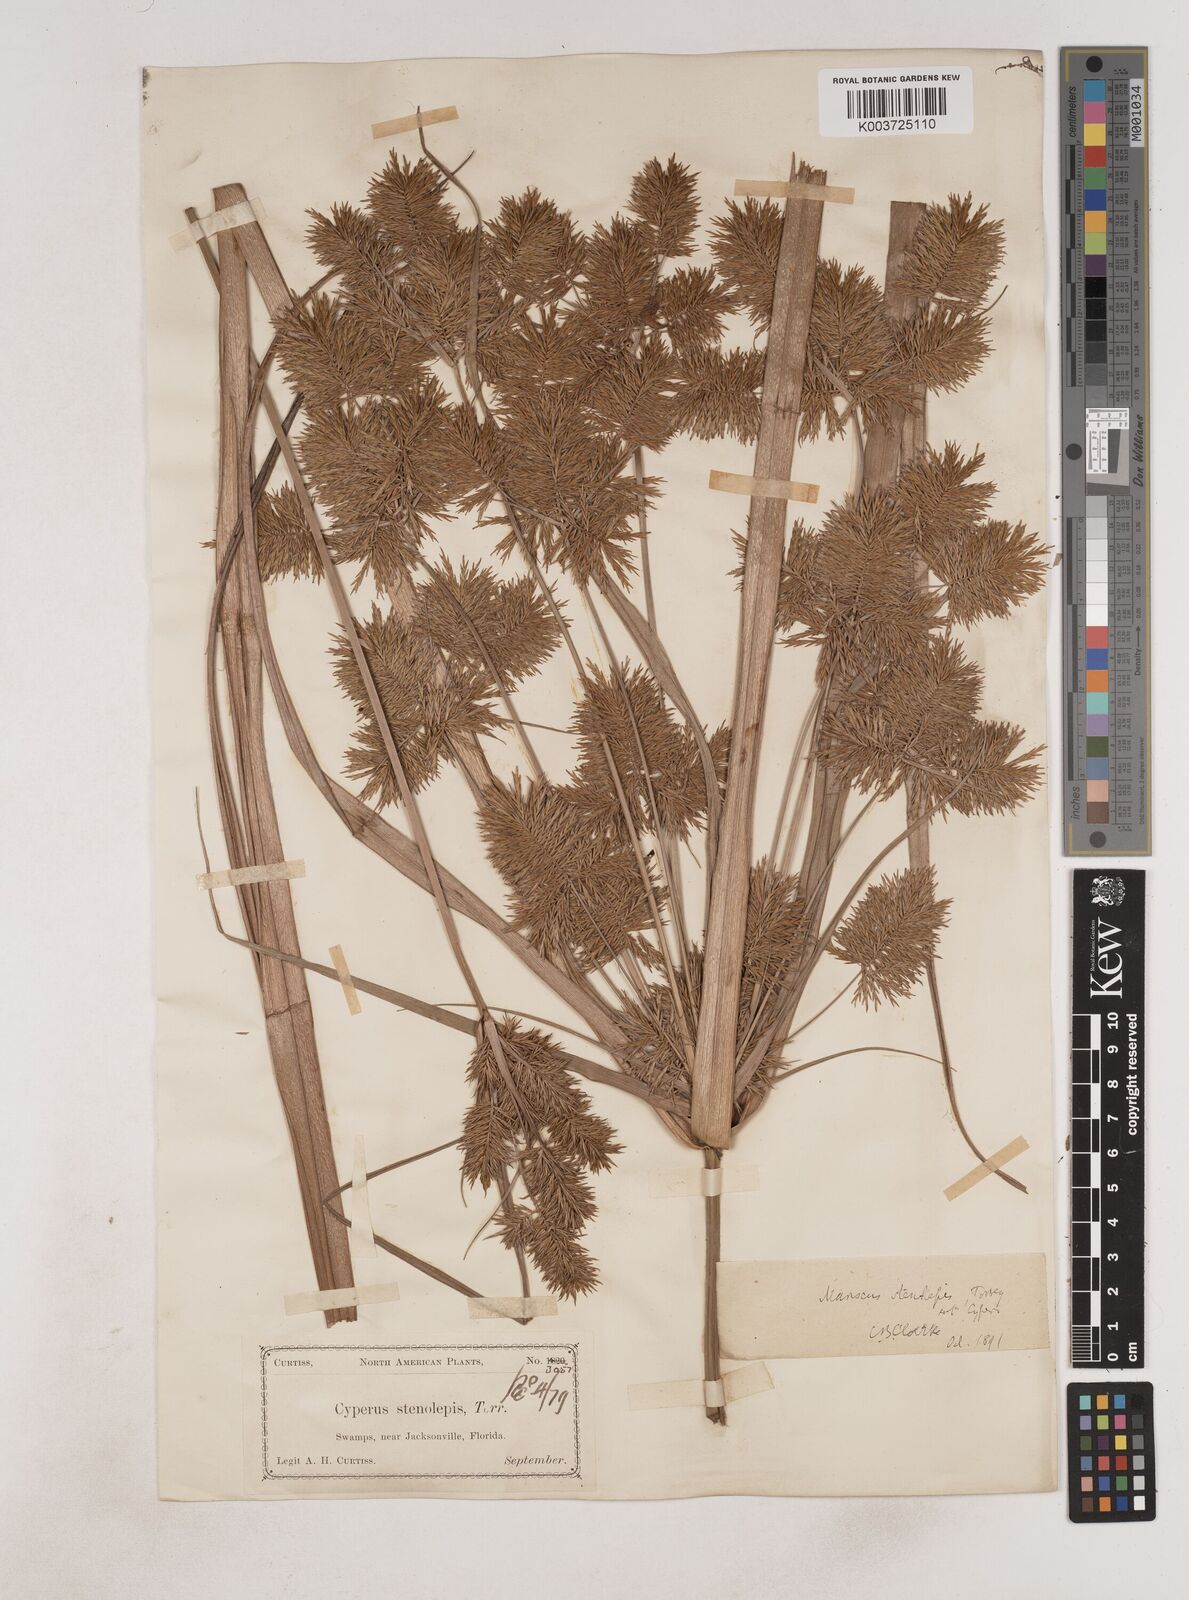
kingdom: Plantae
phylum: Tracheophyta
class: Liliopsida
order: Poales
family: Cyperaceae
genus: Cyperus
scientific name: Cyperus strigosus
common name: False nutsedge
